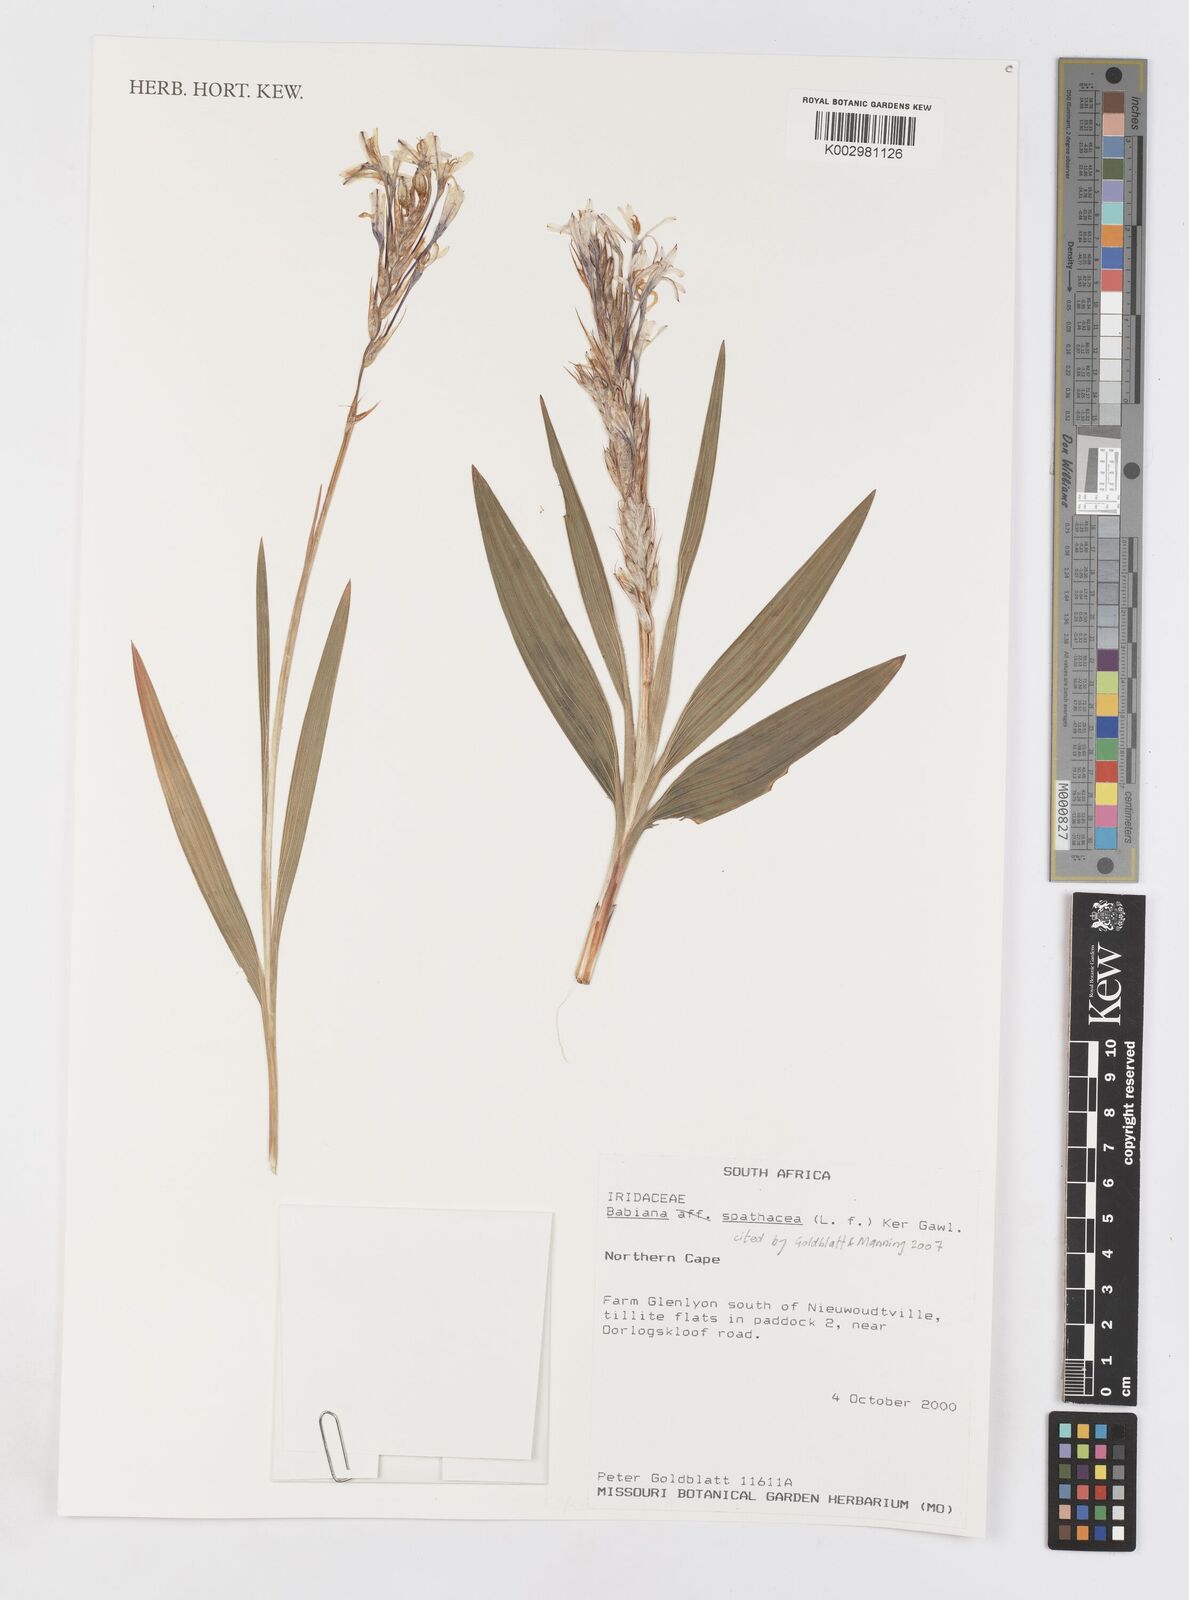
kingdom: Plantae
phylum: Tracheophyta
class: Liliopsida
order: Asparagales
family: Iridaceae
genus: Babiana
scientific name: Babiana spathacea
